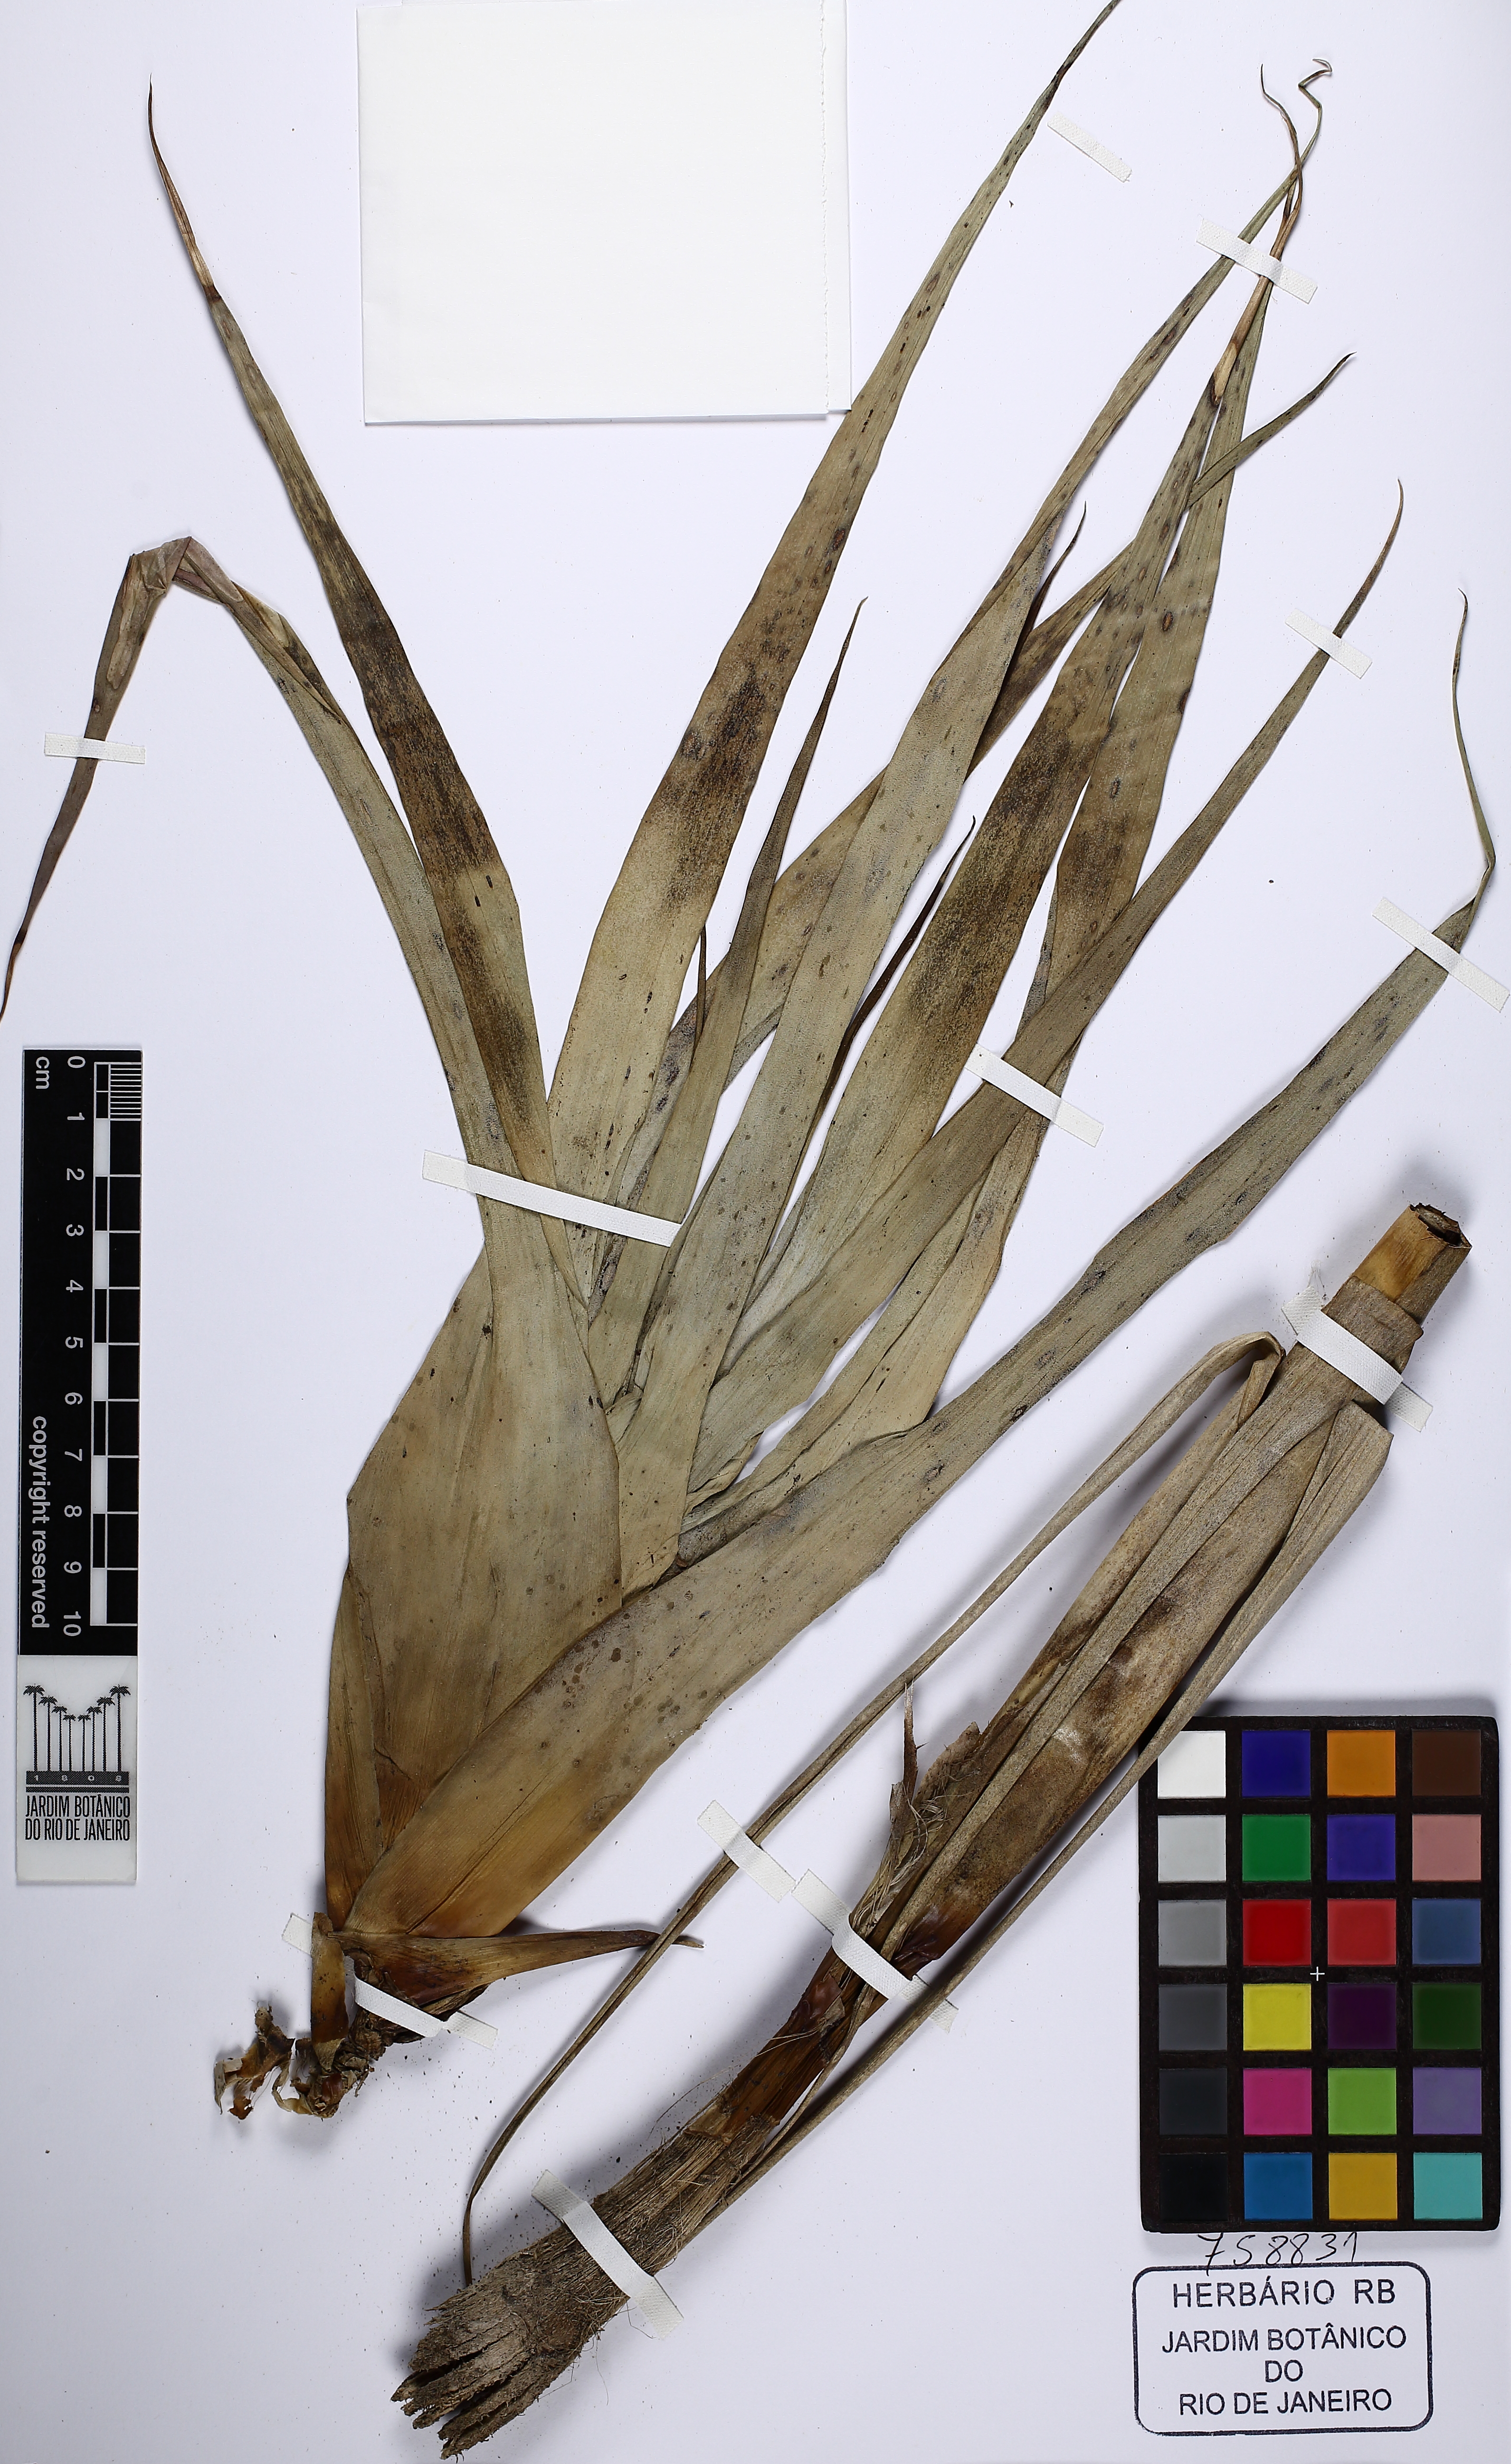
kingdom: Plantae
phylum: Tracheophyta
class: Liliopsida
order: Poales
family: Bromeliaceae
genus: Tillandsia
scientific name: Tillandsia adpressiflora
